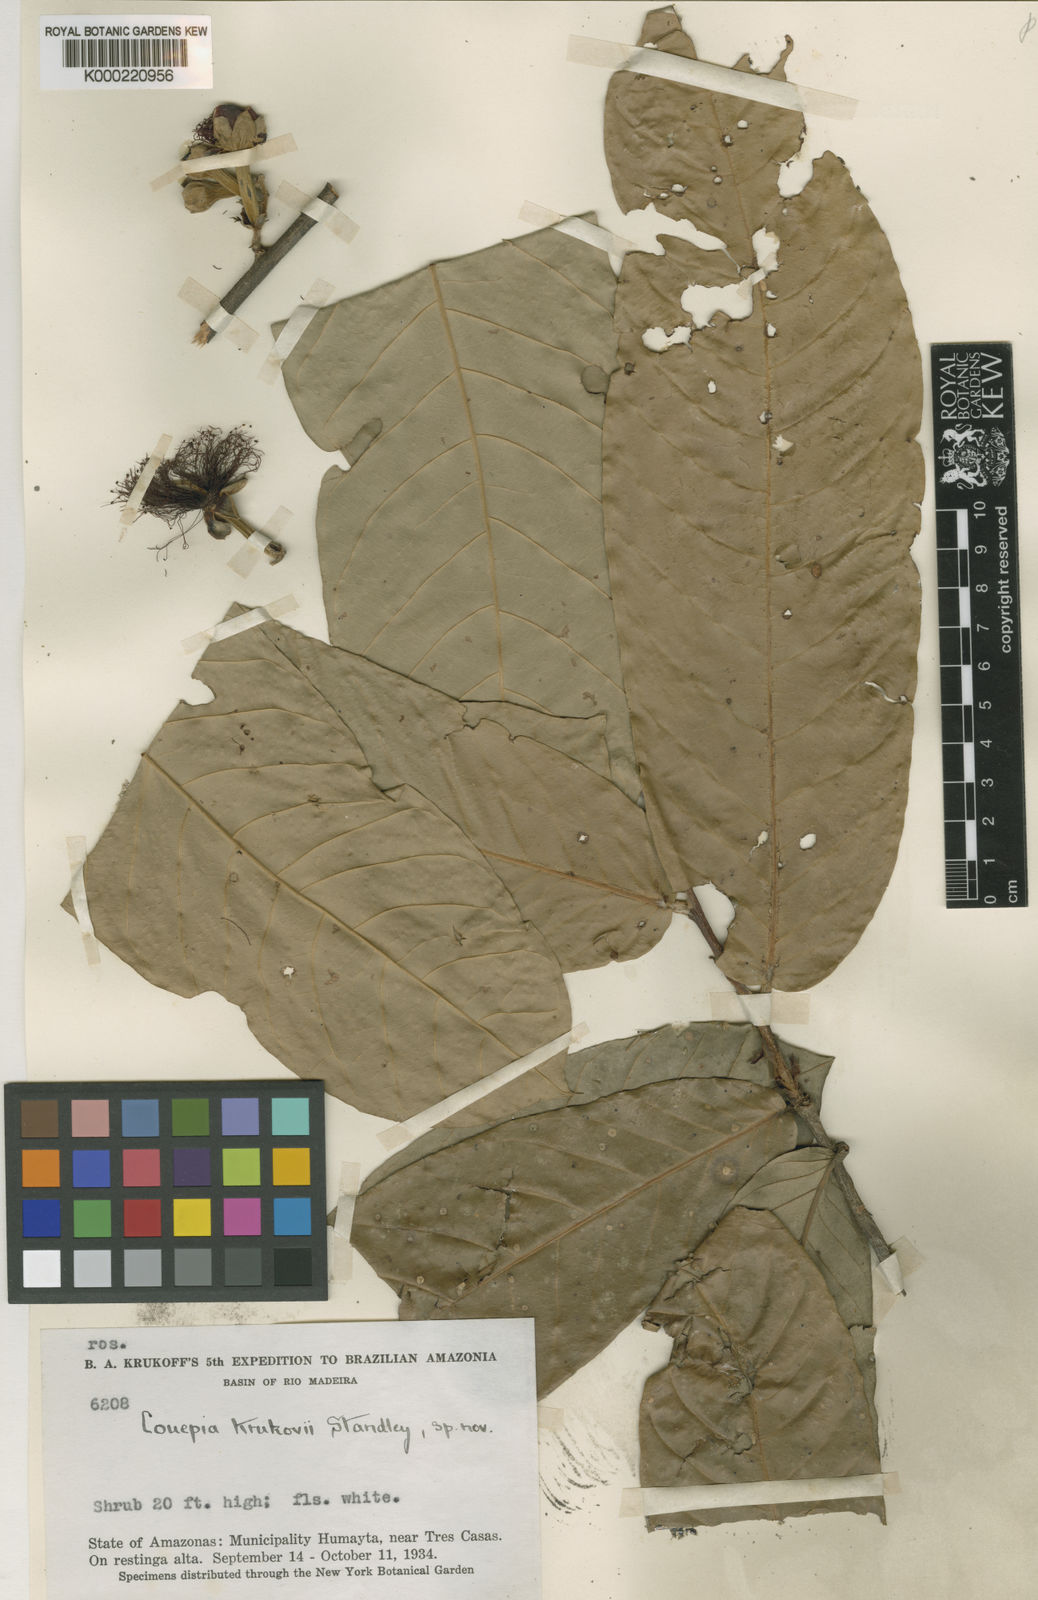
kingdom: Plantae
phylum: Tracheophyta
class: Magnoliopsida
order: Malpighiales
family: Chrysobalanaceae
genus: Couepia
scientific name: Couepia krukovii
